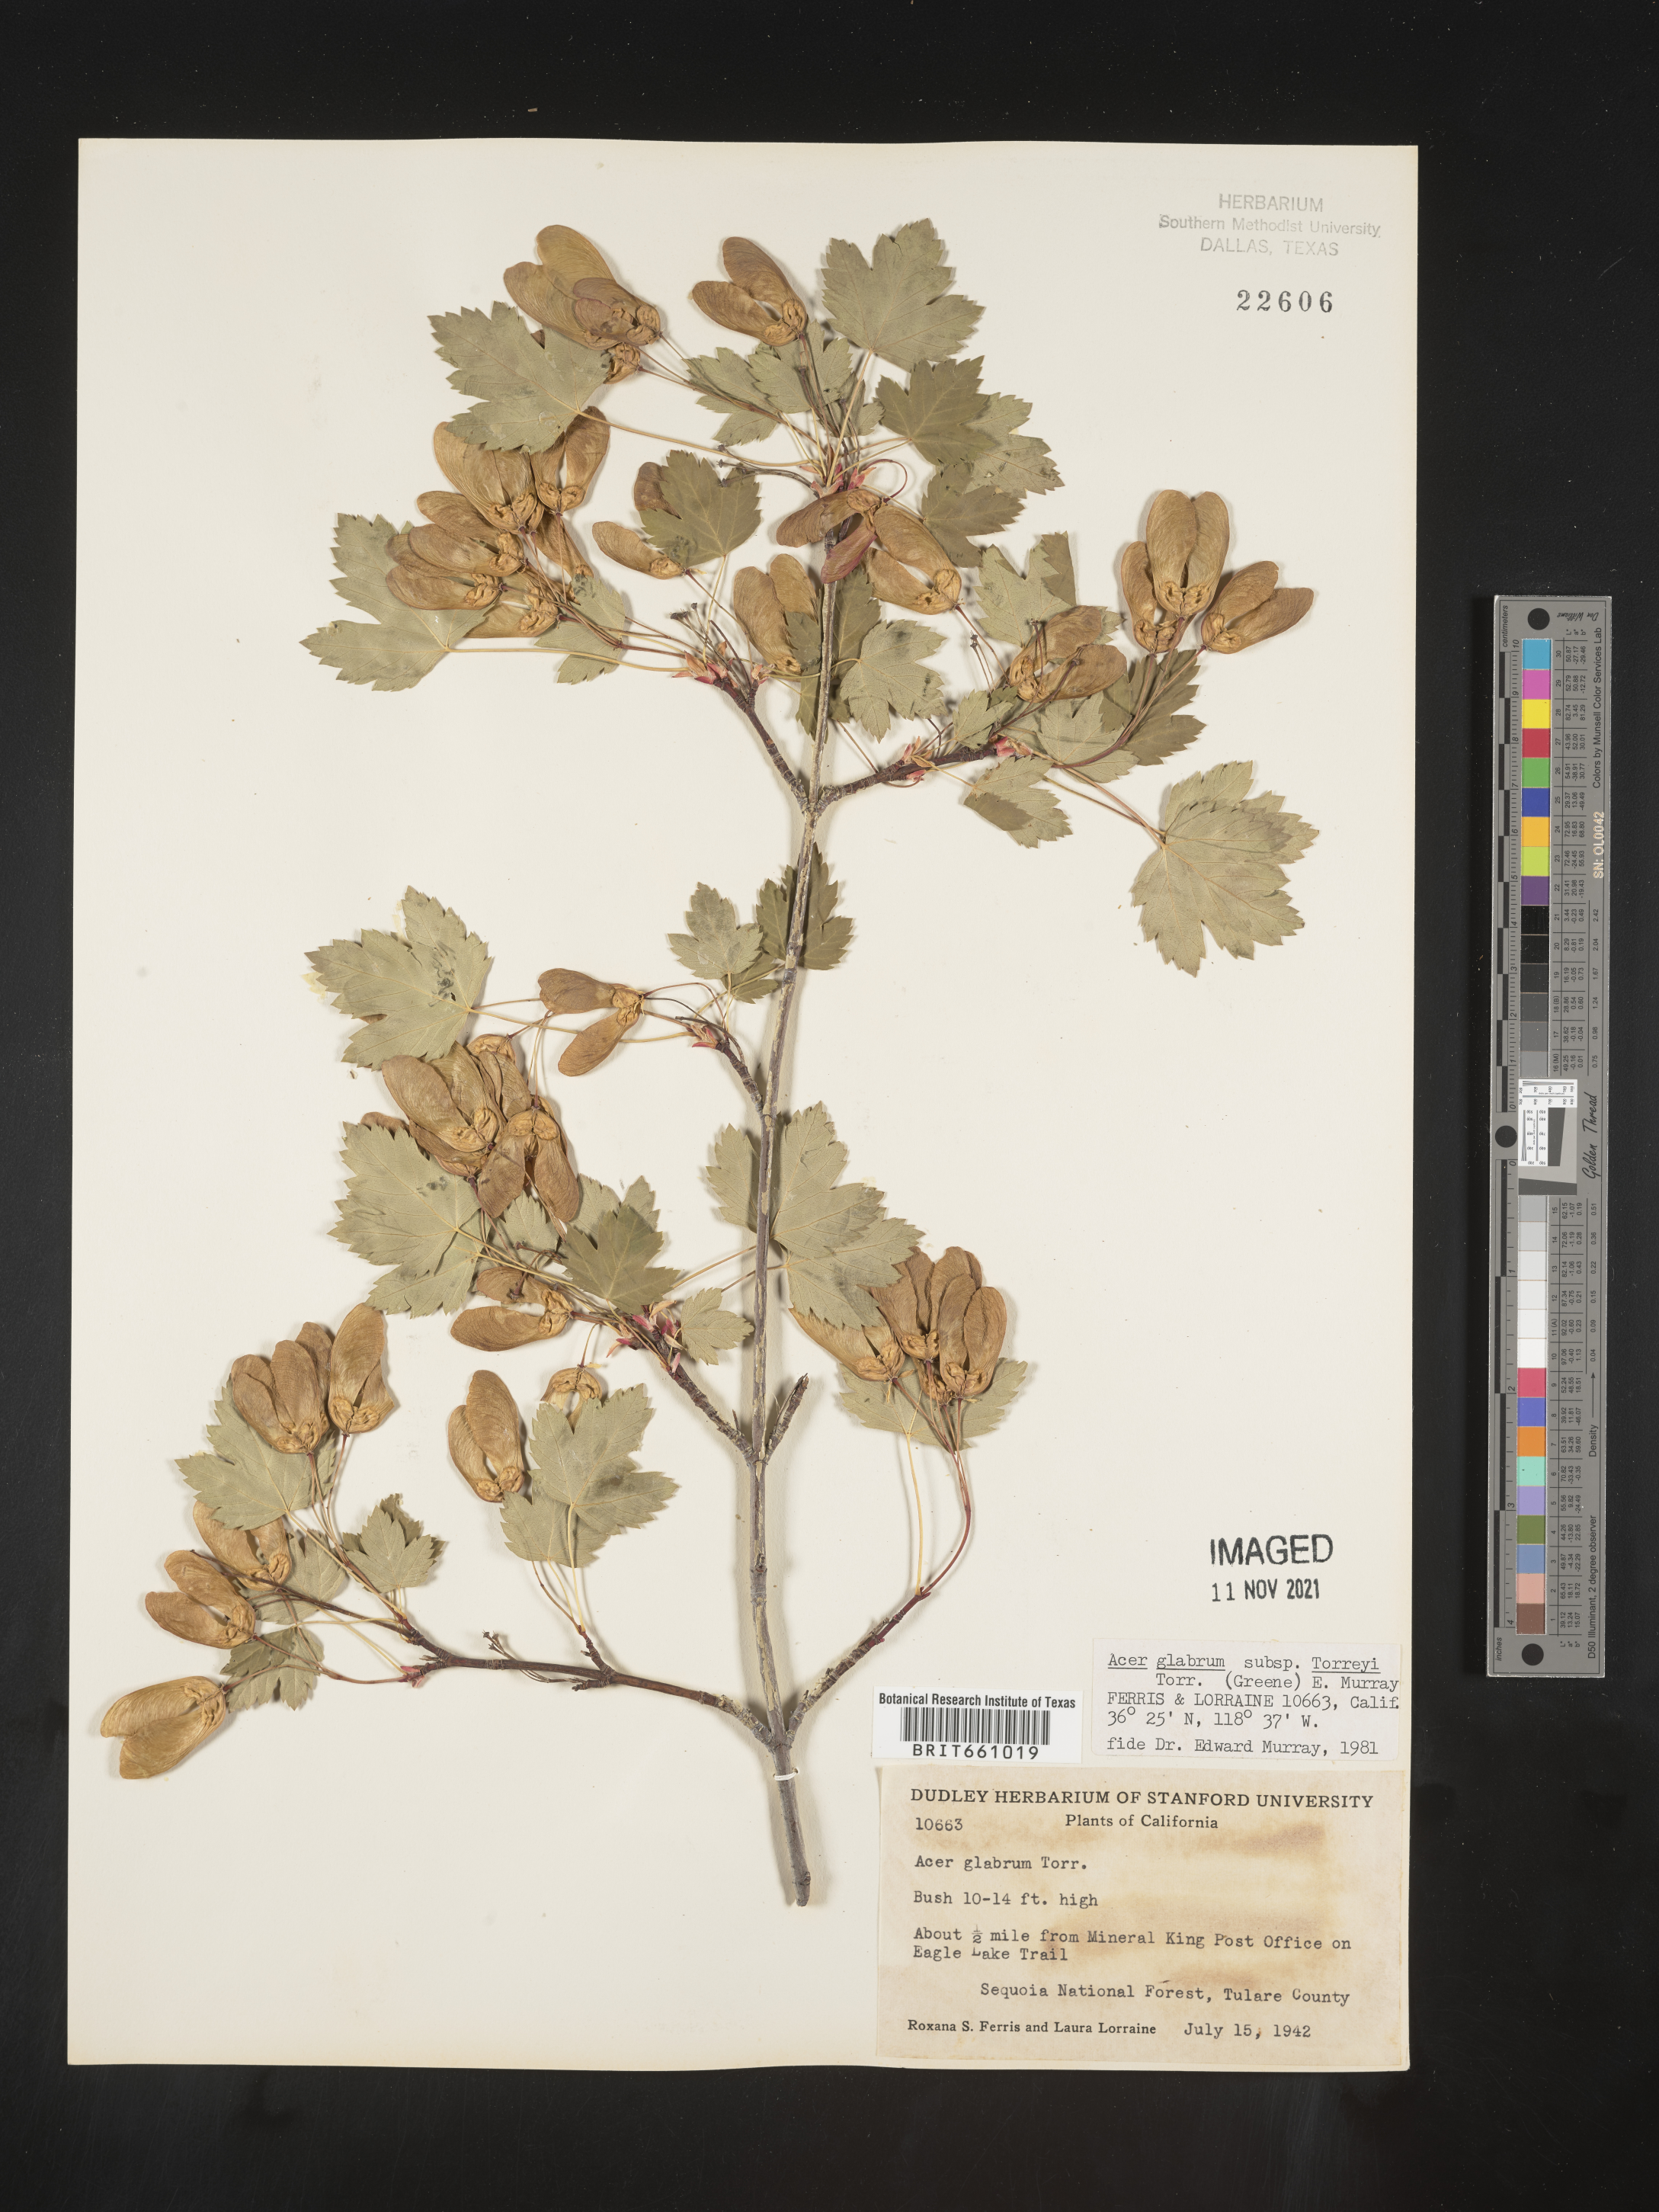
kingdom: Plantae
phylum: Tracheophyta
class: Magnoliopsida
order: Sapindales
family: Sapindaceae
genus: Acer
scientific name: Acer glabrum
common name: Rocky mountain maple
